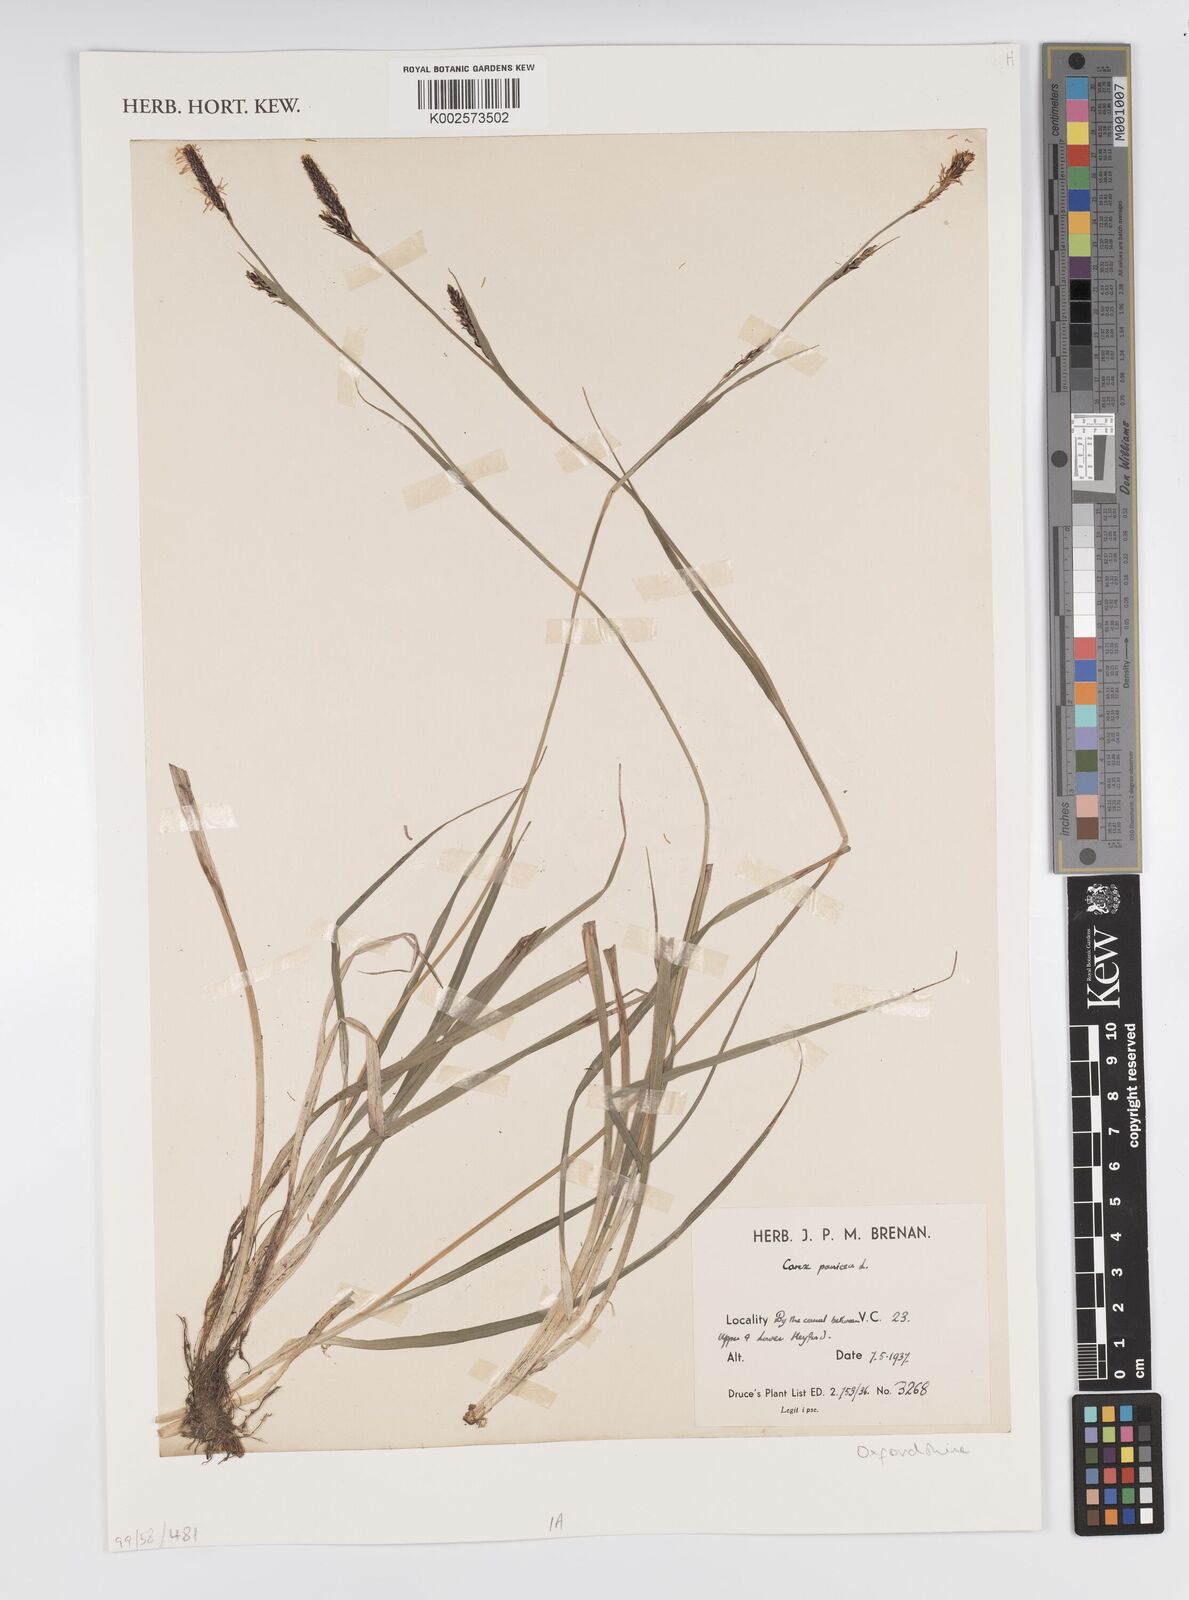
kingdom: Plantae
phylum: Tracheophyta
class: Liliopsida
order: Poales
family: Cyperaceae
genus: Carex
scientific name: Carex panicea
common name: Carnation sedge
